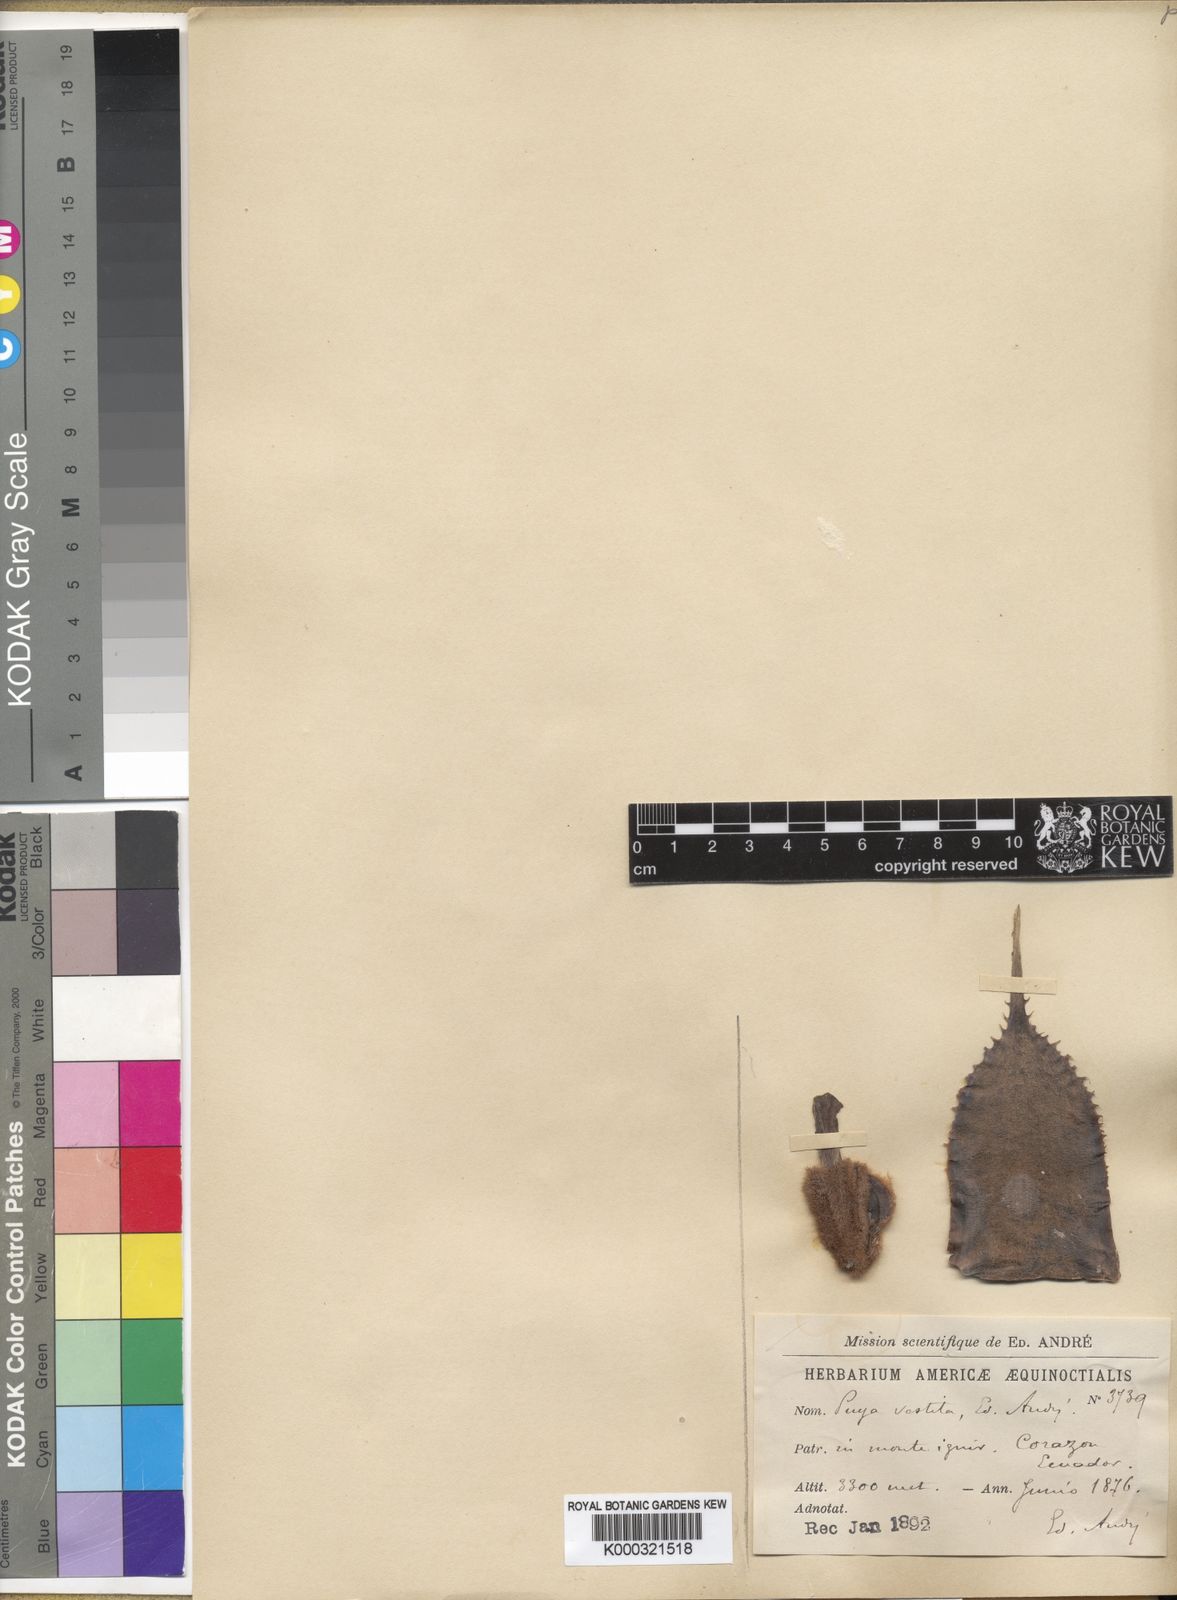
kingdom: Plantae
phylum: Tracheophyta
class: Liliopsida
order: Poales
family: Bromeliaceae
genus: Puya
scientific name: Puya
